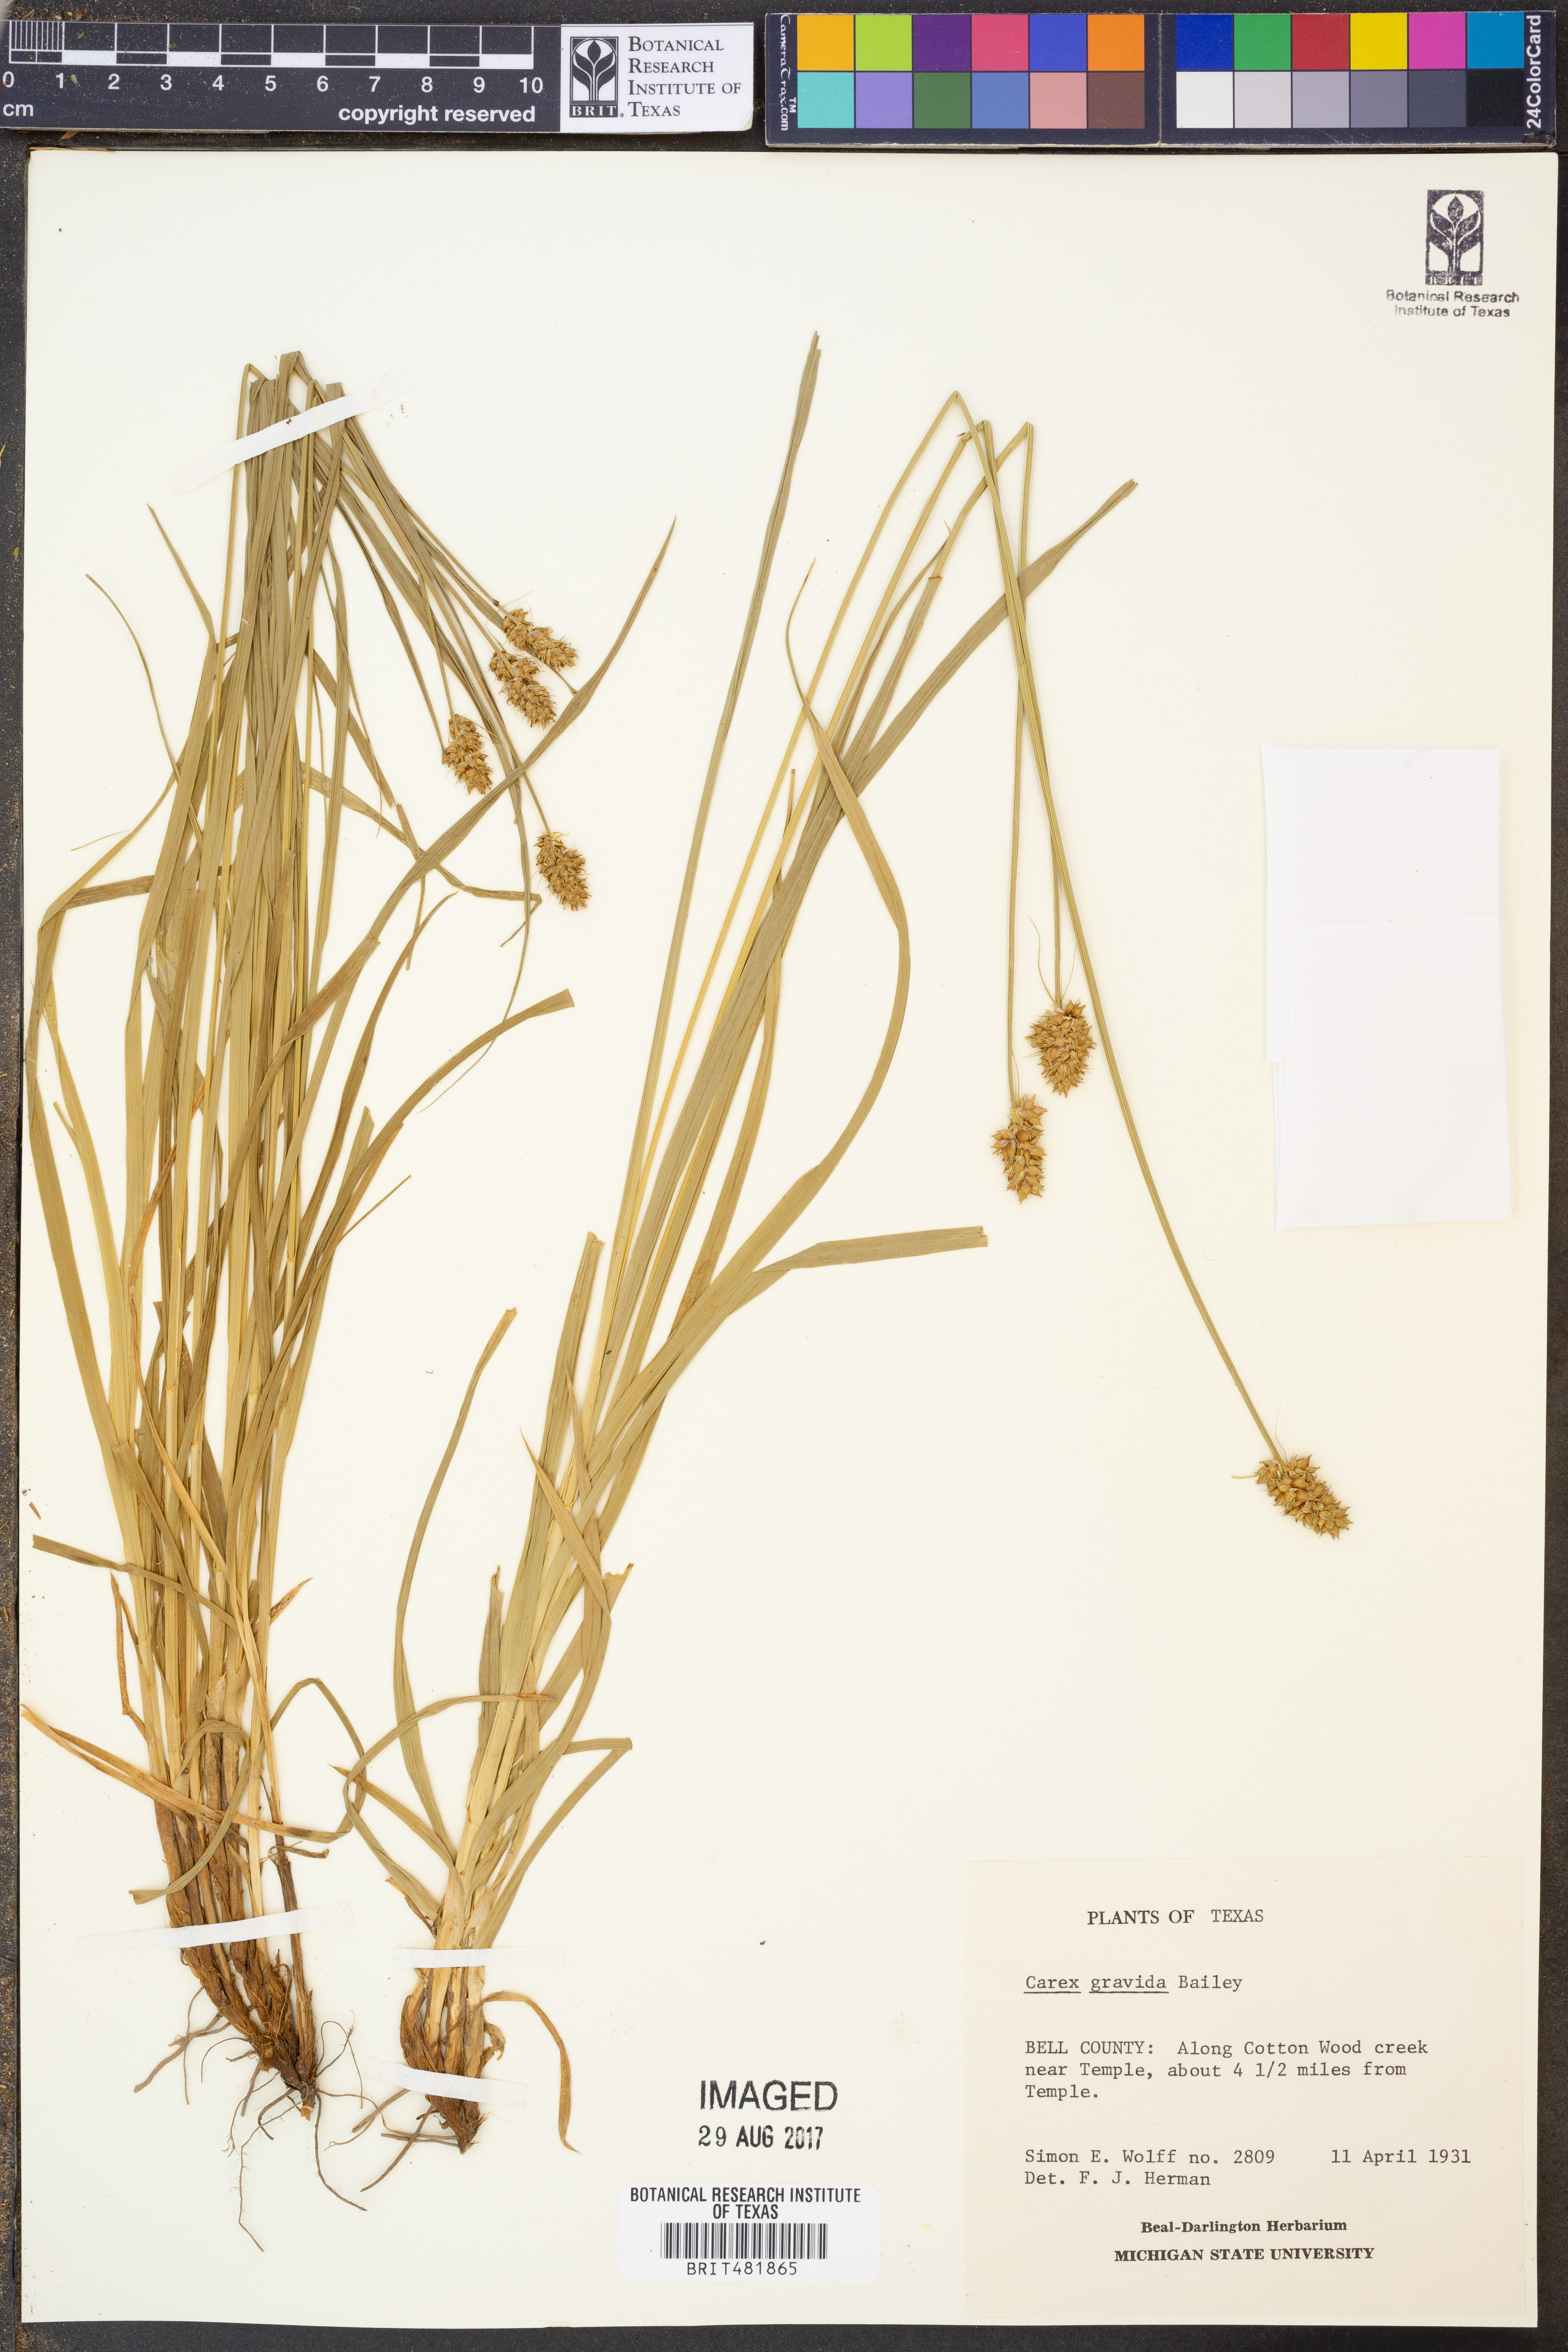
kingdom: Plantae
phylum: Tracheophyta
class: Liliopsida
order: Poales
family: Cyperaceae
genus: Carex
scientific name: Carex gravida
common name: Heavy sedge
